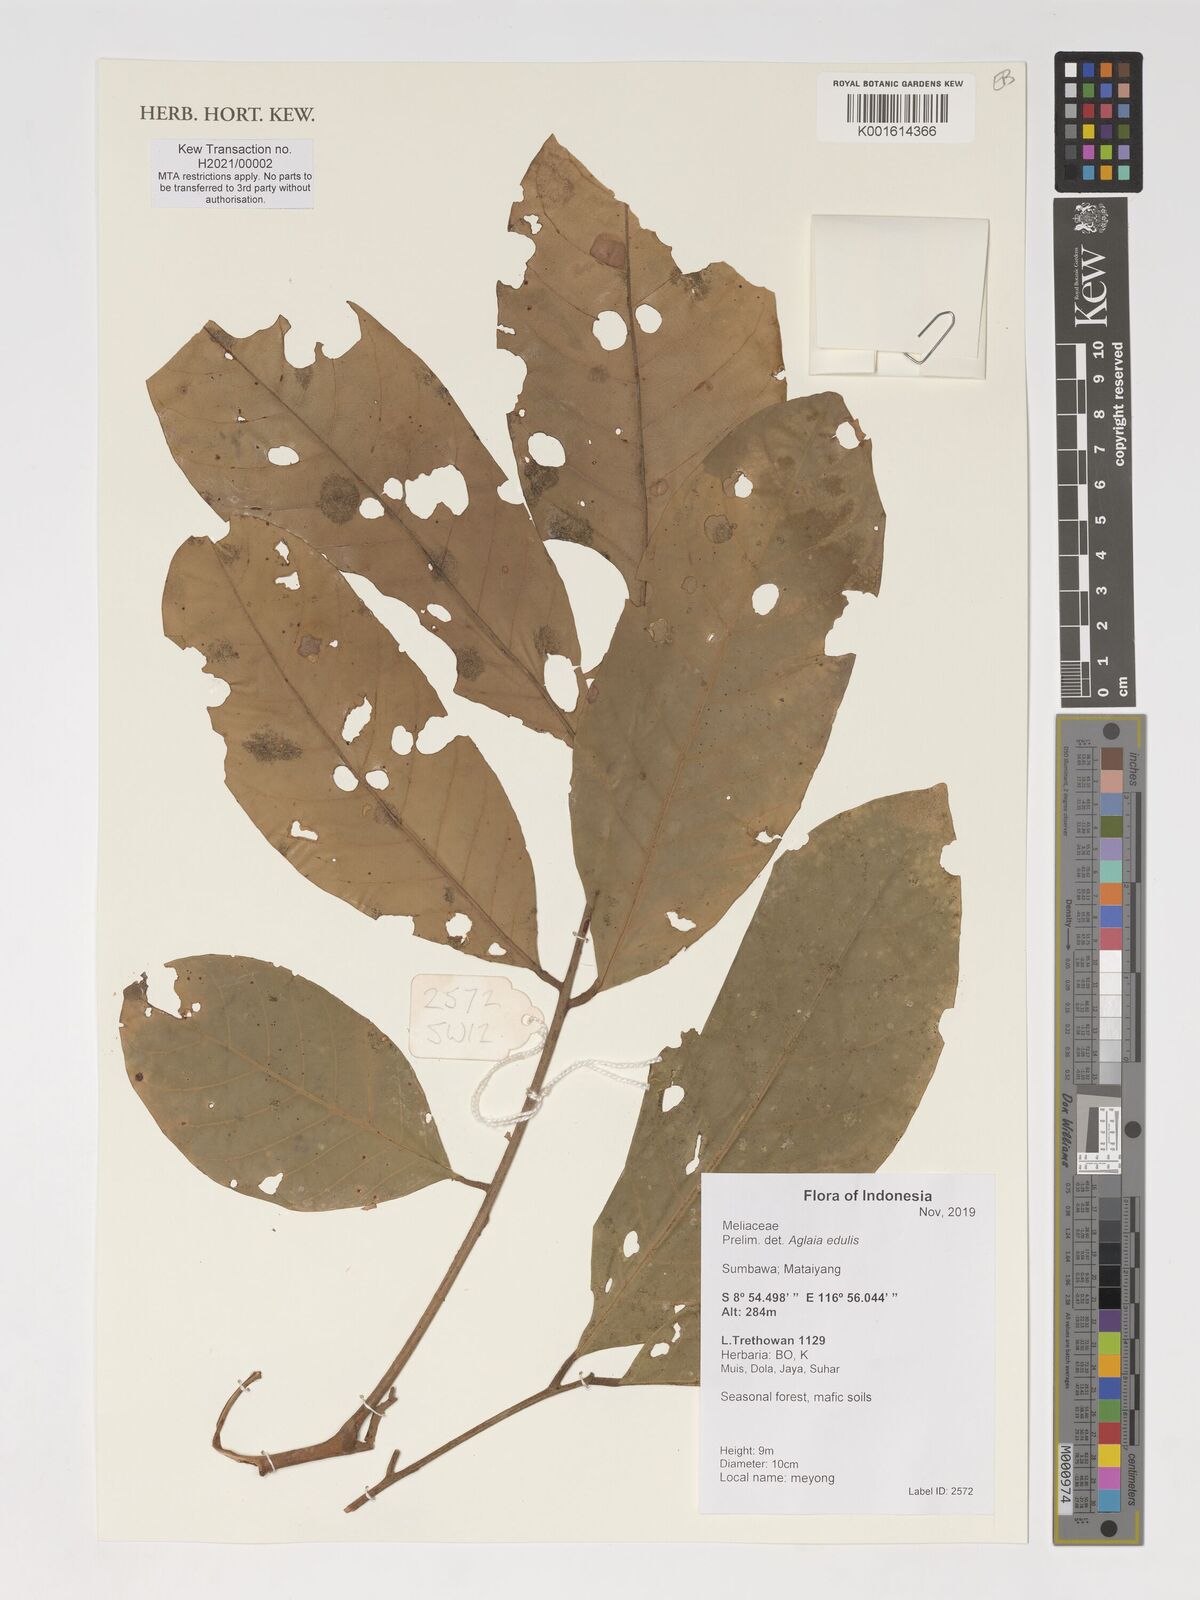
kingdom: Plantae
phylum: Tracheophyta
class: Magnoliopsida
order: Sapindales
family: Meliaceae
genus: Aglaia
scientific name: Aglaia edulis
